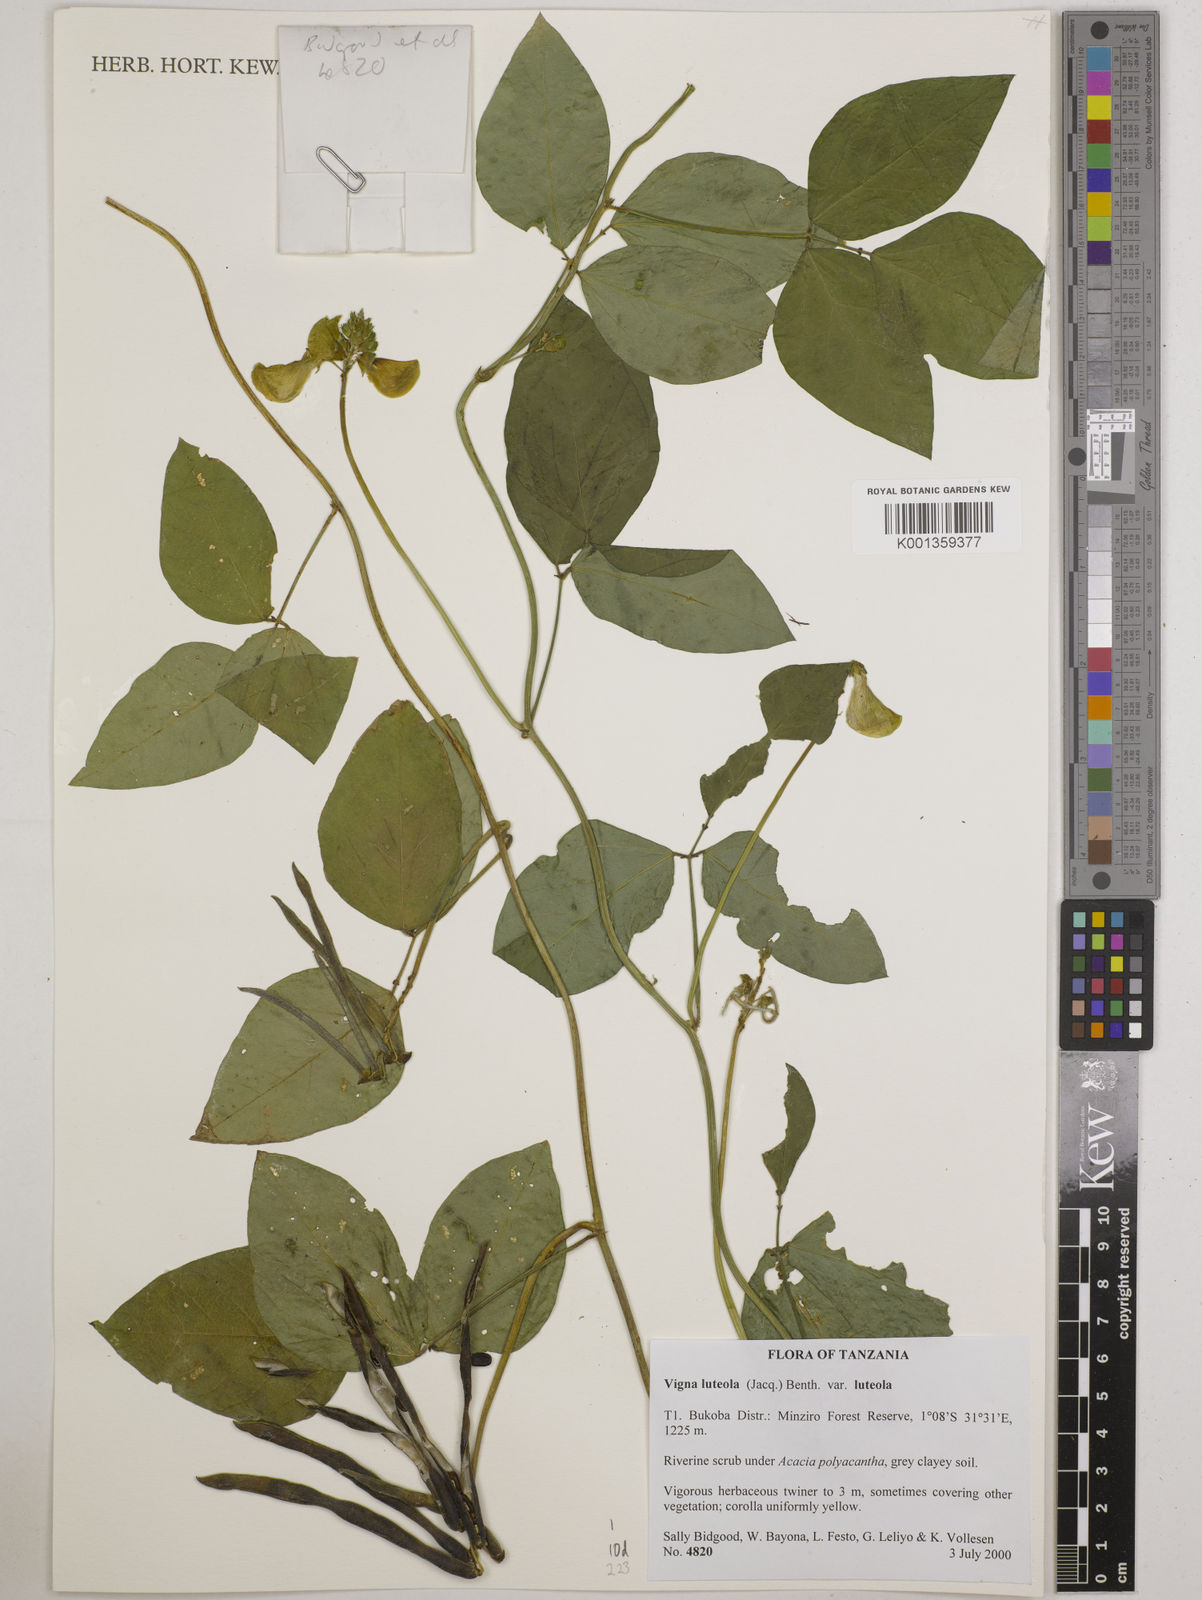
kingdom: Plantae
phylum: Tracheophyta
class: Magnoliopsida
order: Fabales
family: Fabaceae
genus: Vigna
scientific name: Vigna luteola
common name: Hairypod cowpea
